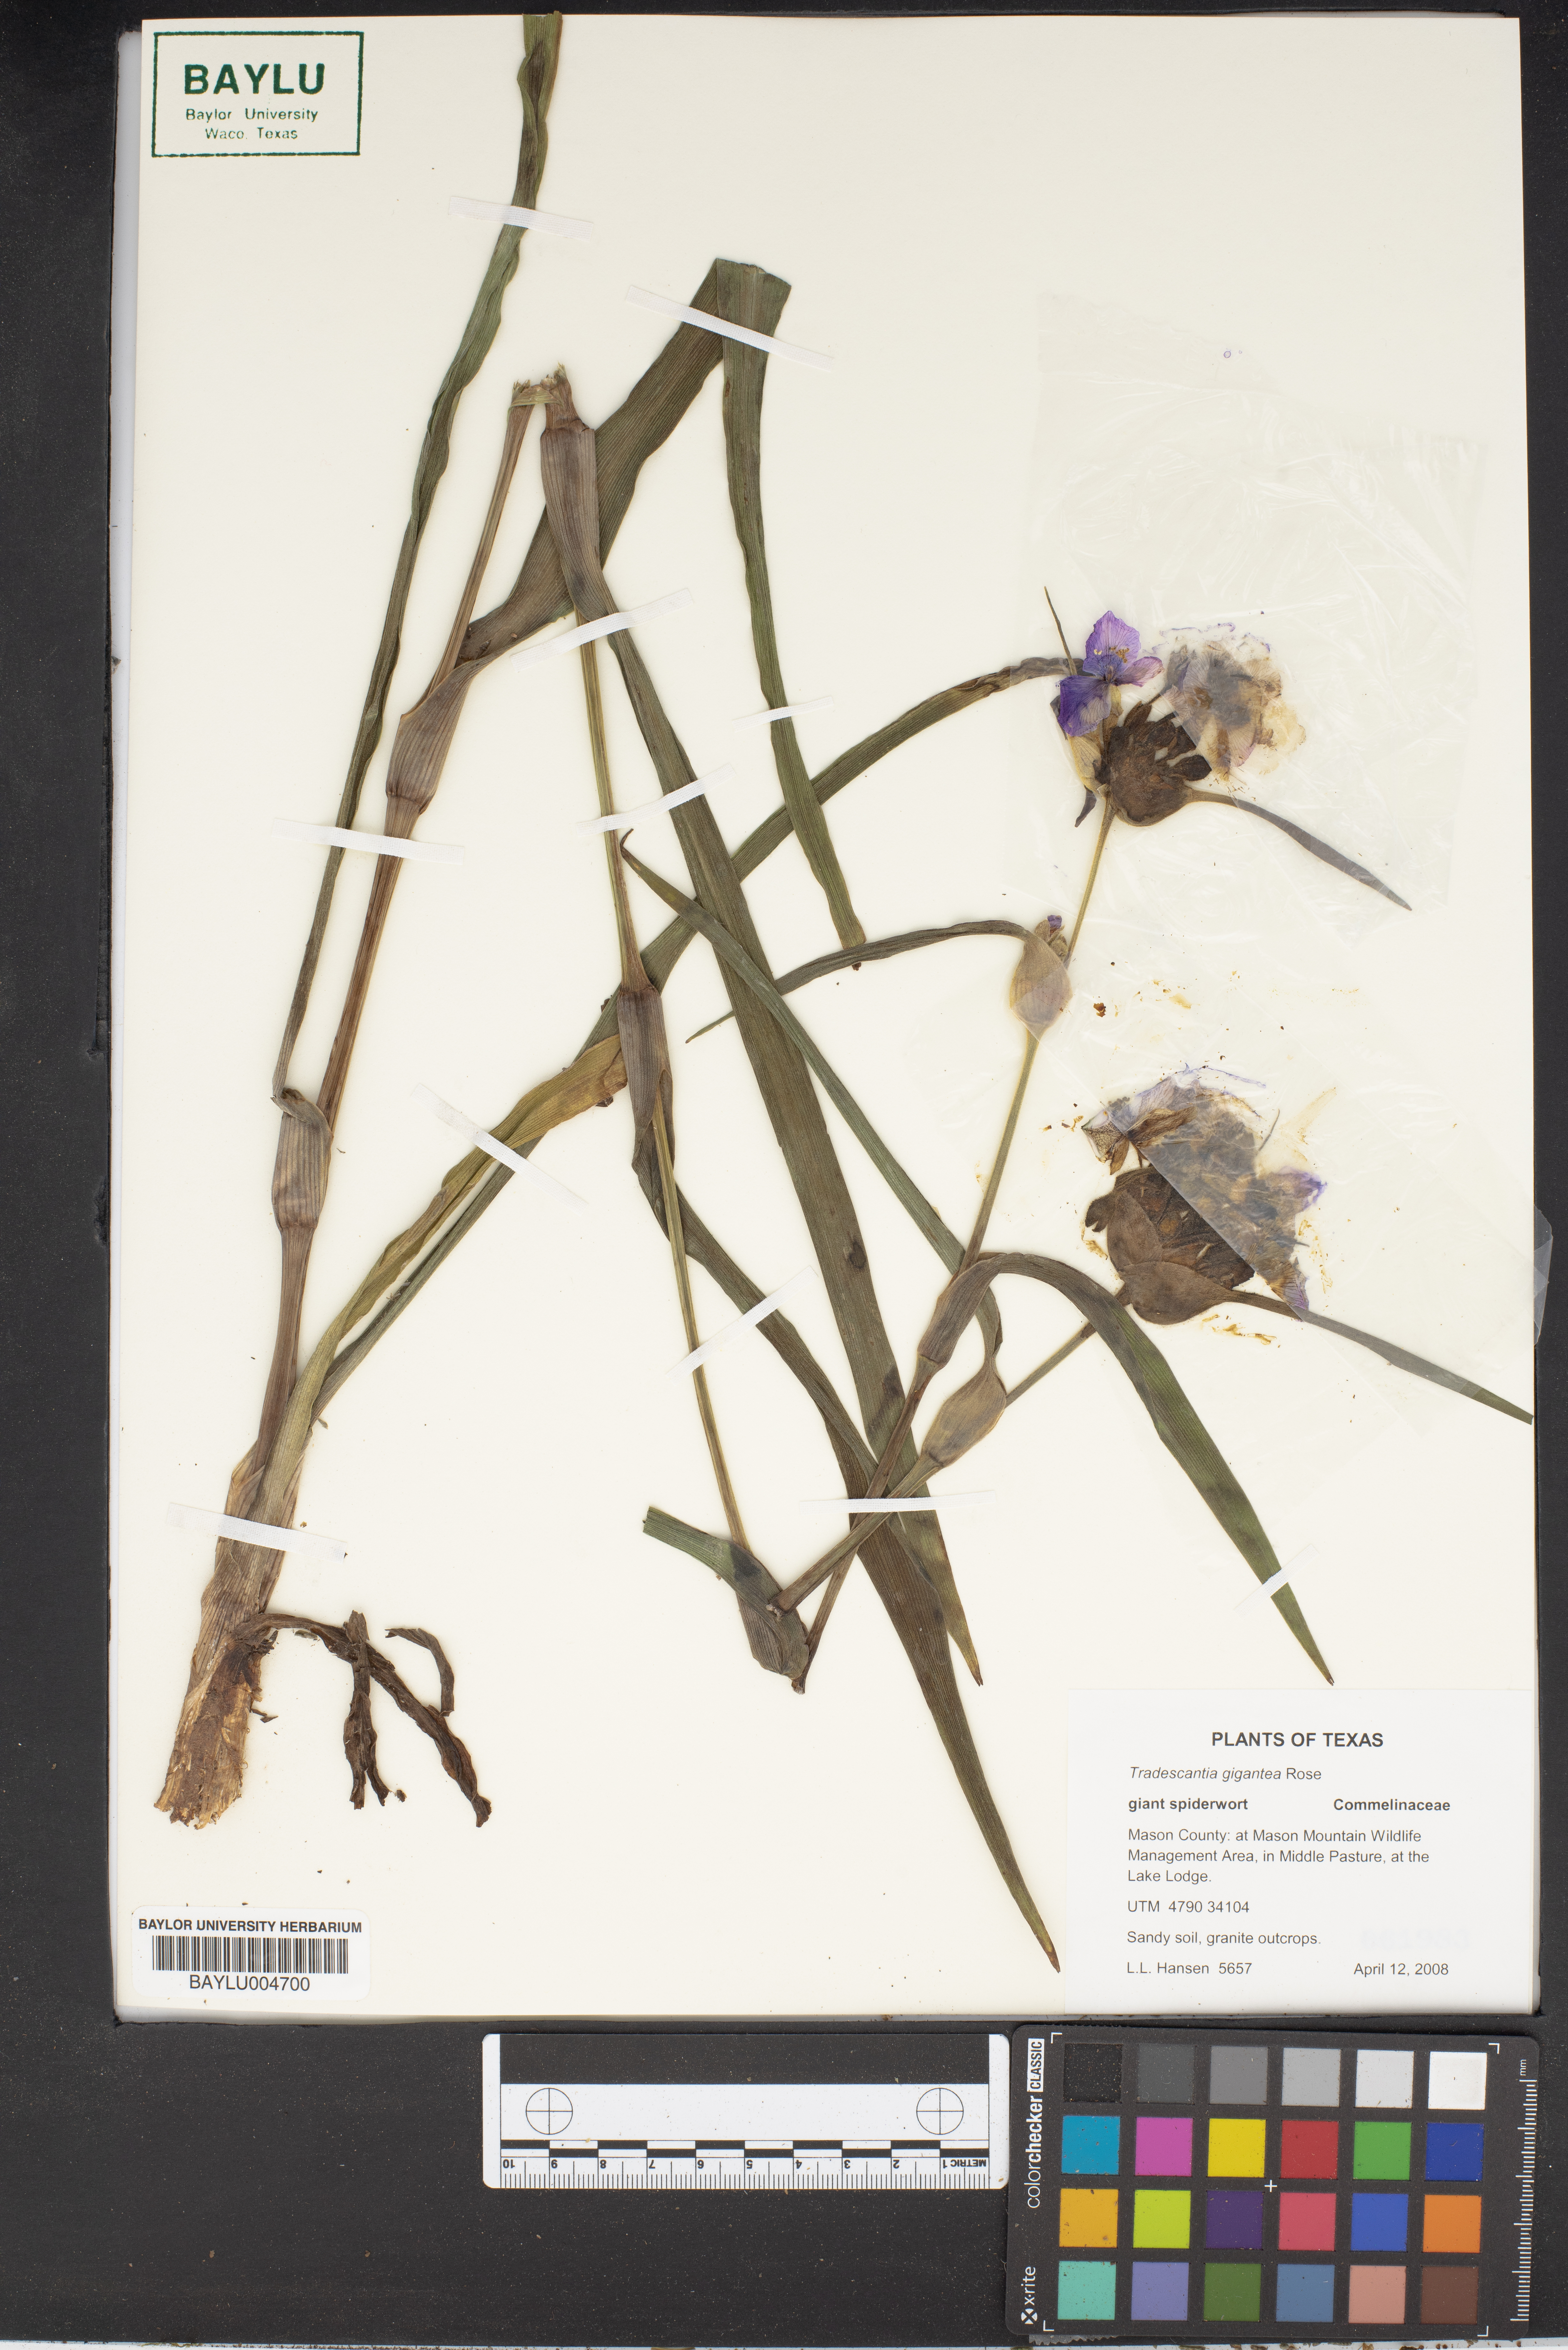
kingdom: Plantae
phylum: Tracheophyta
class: Liliopsida
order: Commelinales
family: Commelinaceae
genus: Tradescantia
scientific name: Tradescantia gigantea
